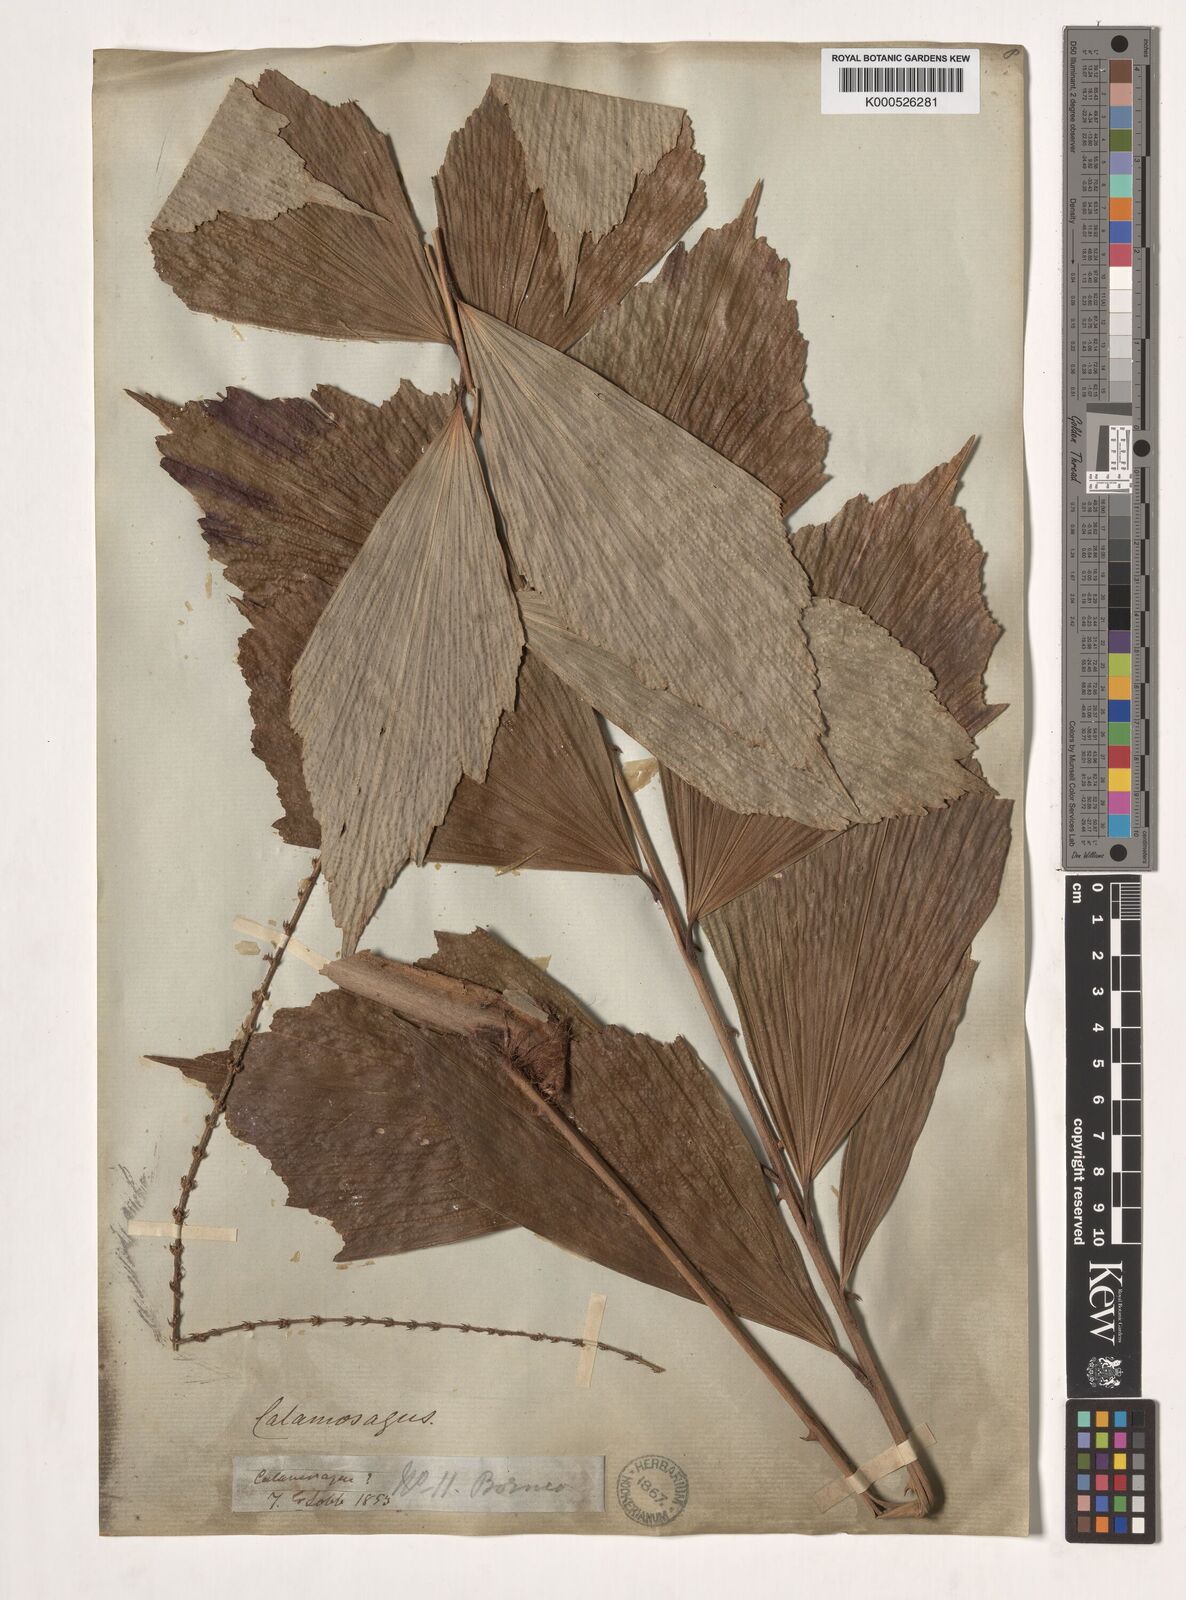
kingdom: Plantae
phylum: Tracheophyta
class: Liliopsida
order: Arecales
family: Arecaceae
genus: Korthalsia
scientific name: Korthalsia
